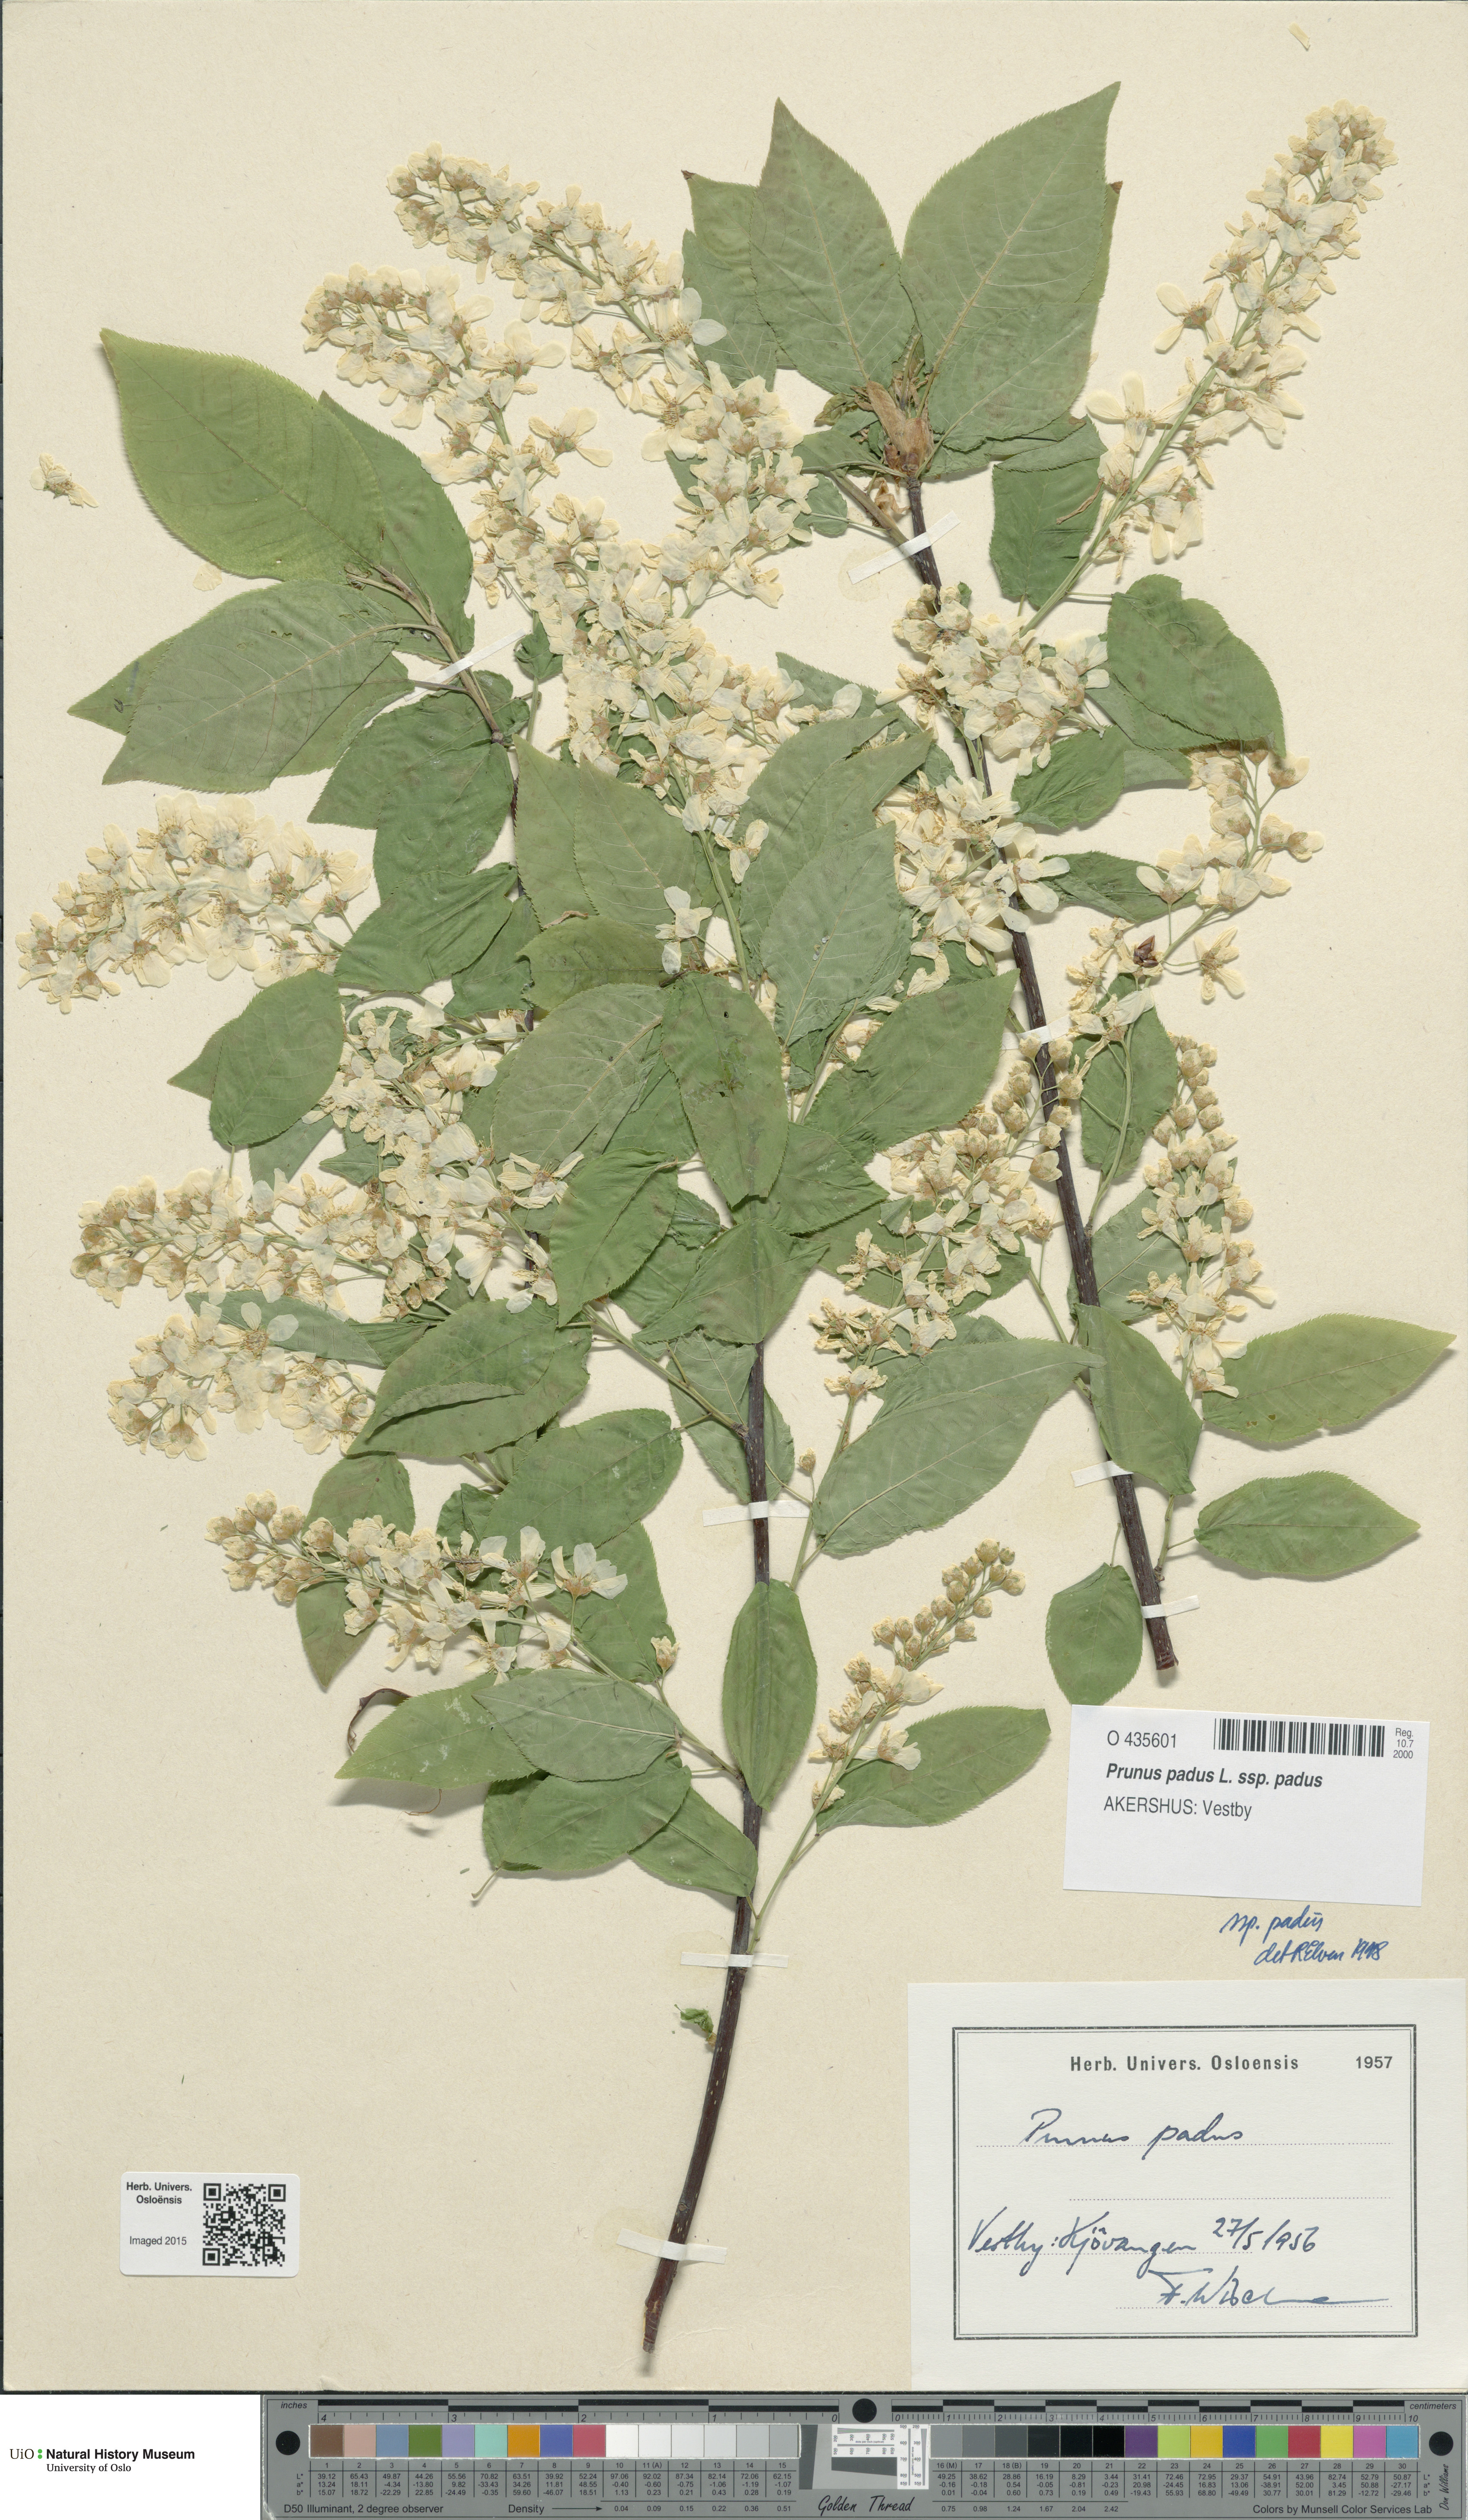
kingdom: Plantae
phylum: Tracheophyta
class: Magnoliopsida
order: Rosales
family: Rosaceae
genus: Prunus
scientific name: Prunus padus
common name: Bird cherry
